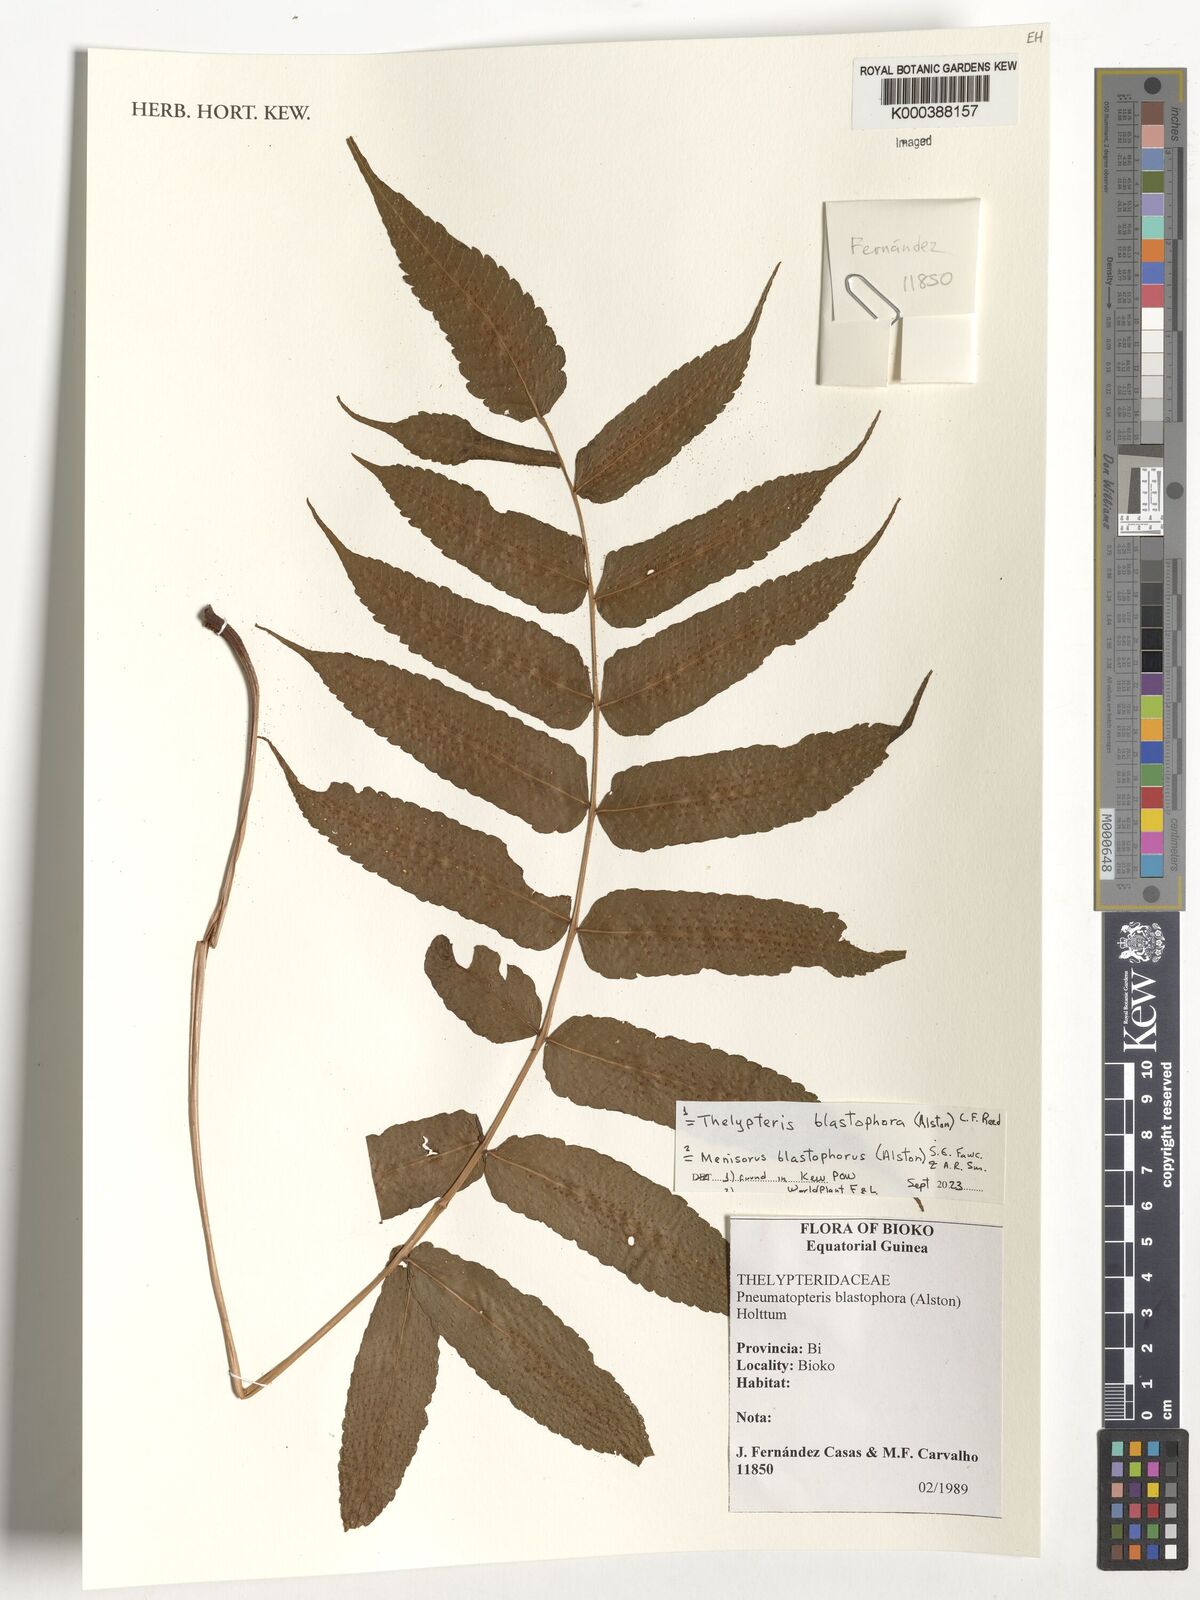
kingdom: Plantae
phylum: Tracheophyta
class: Polypodiopsida
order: Polypodiales
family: Thelypteridaceae
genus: Menisorus
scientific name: Menisorus blastophorus
